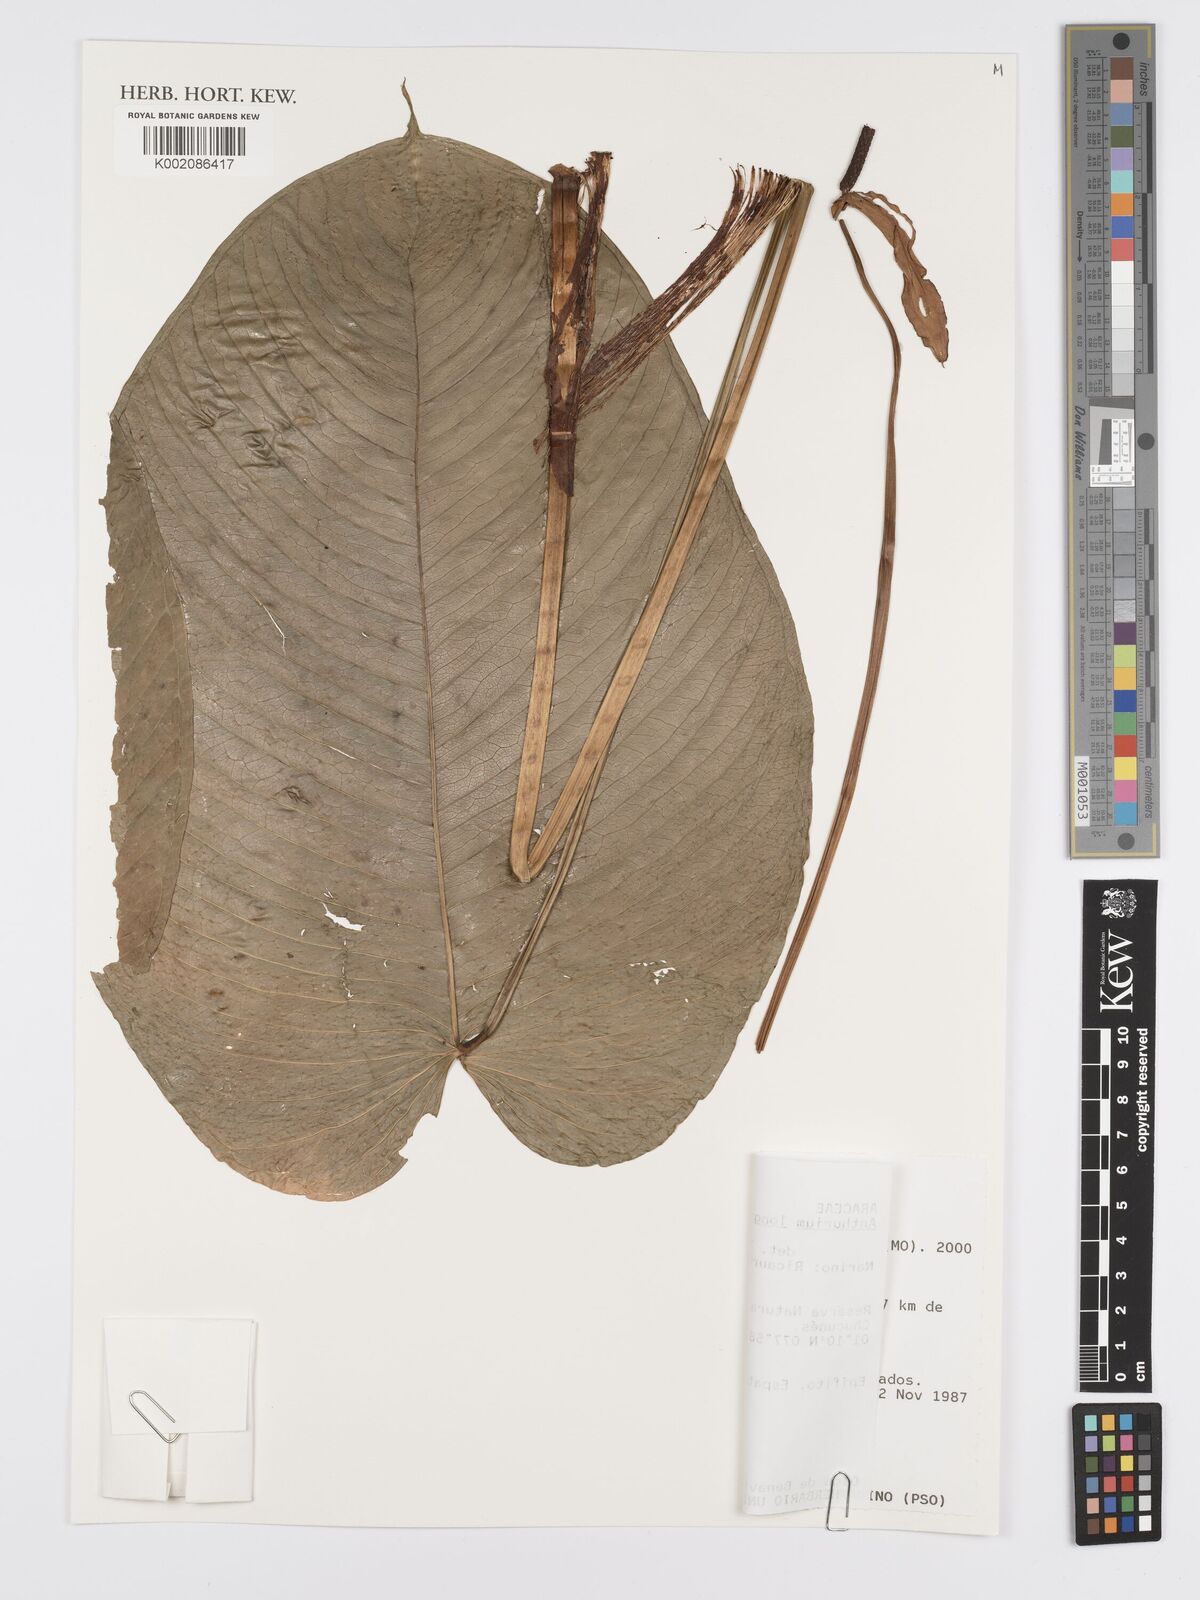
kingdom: Plantae
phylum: Tracheophyta
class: Liliopsida
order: Alismatales
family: Araceae
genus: Anthurium
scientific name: Anthurium longicaudatum
